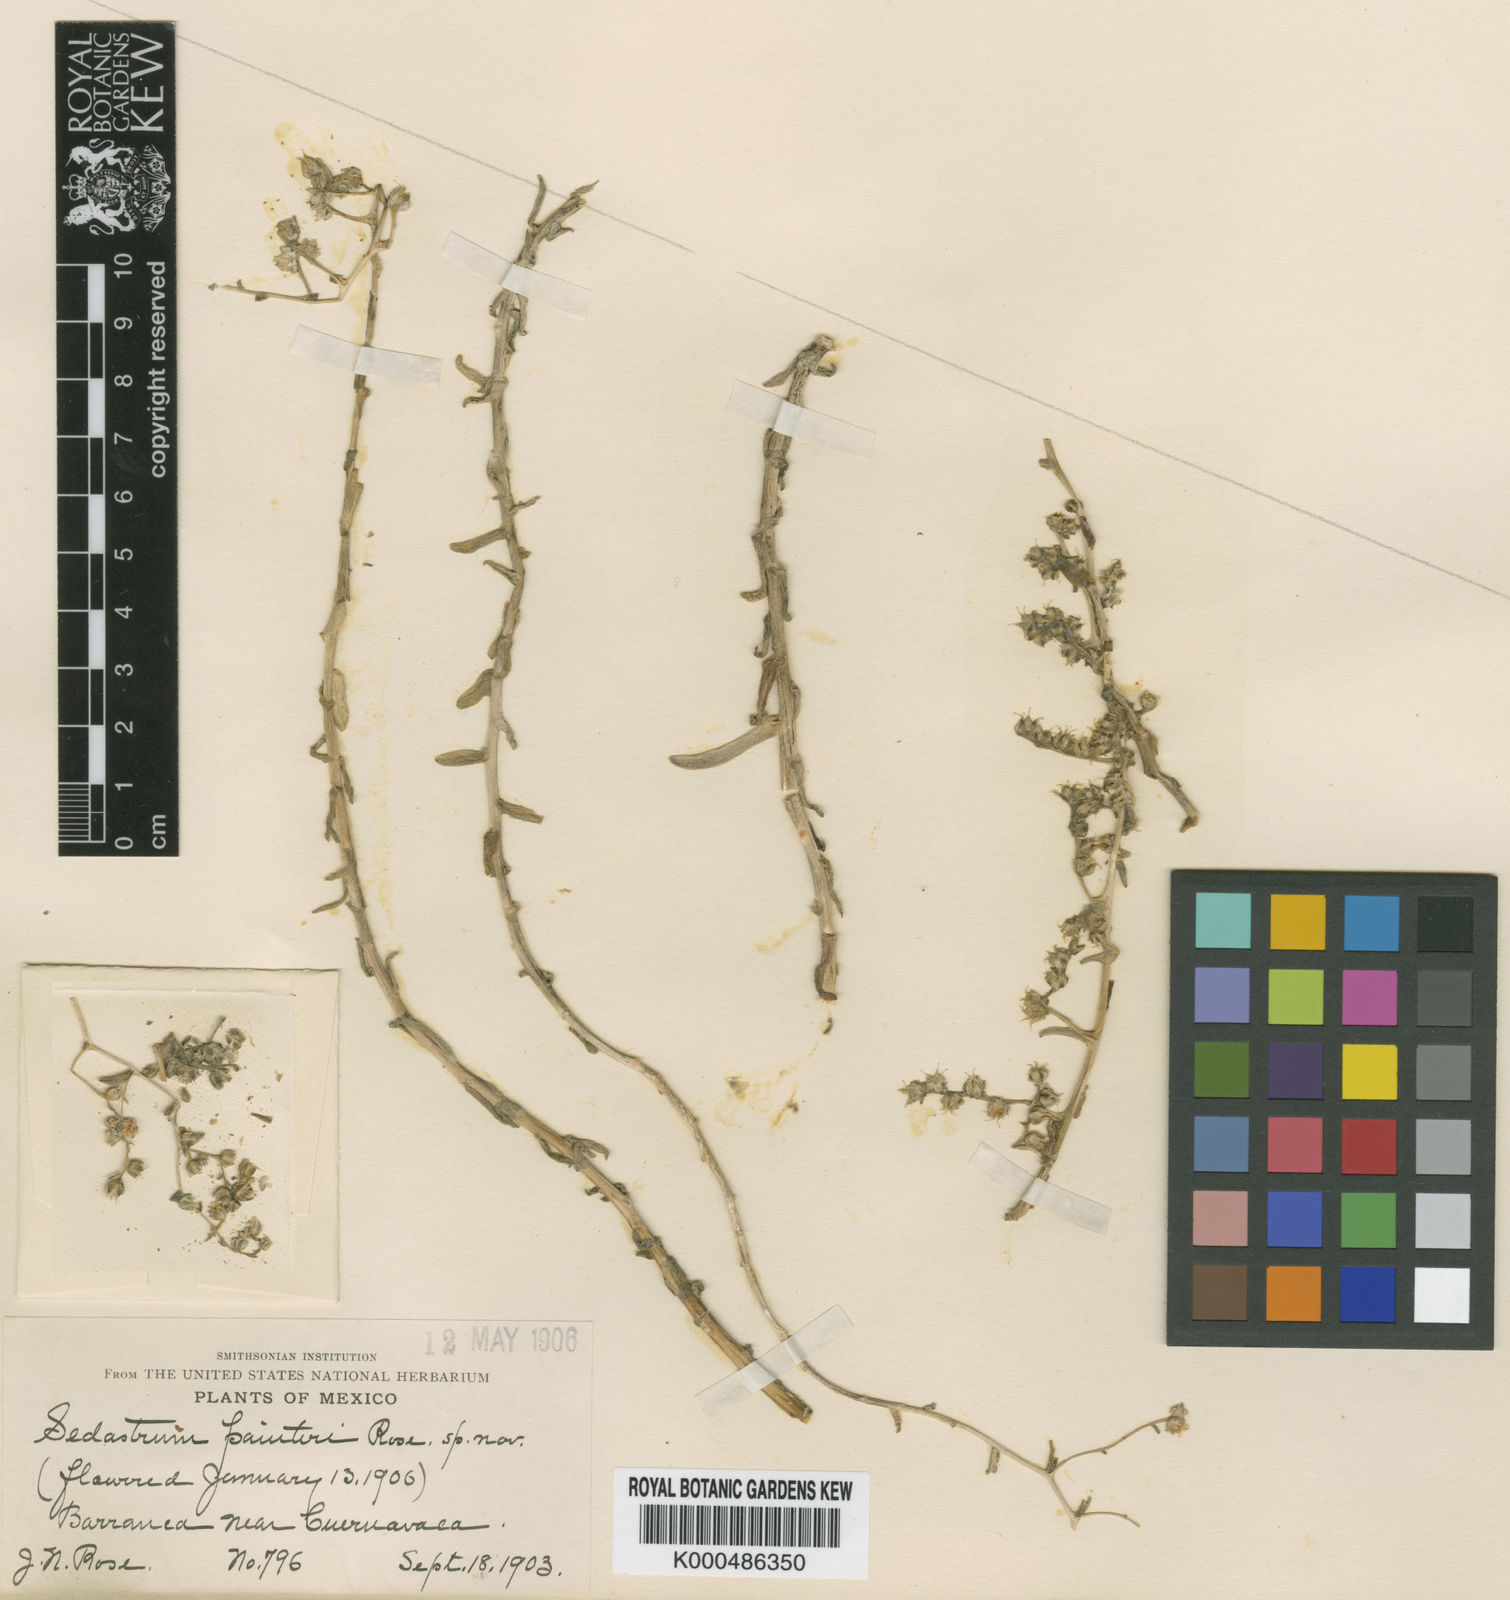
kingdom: Plantae
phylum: Tracheophyta
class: Magnoliopsida
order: Saxifragales
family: Crassulaceae
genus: Sedum
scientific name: Sedum hemsleyanum
